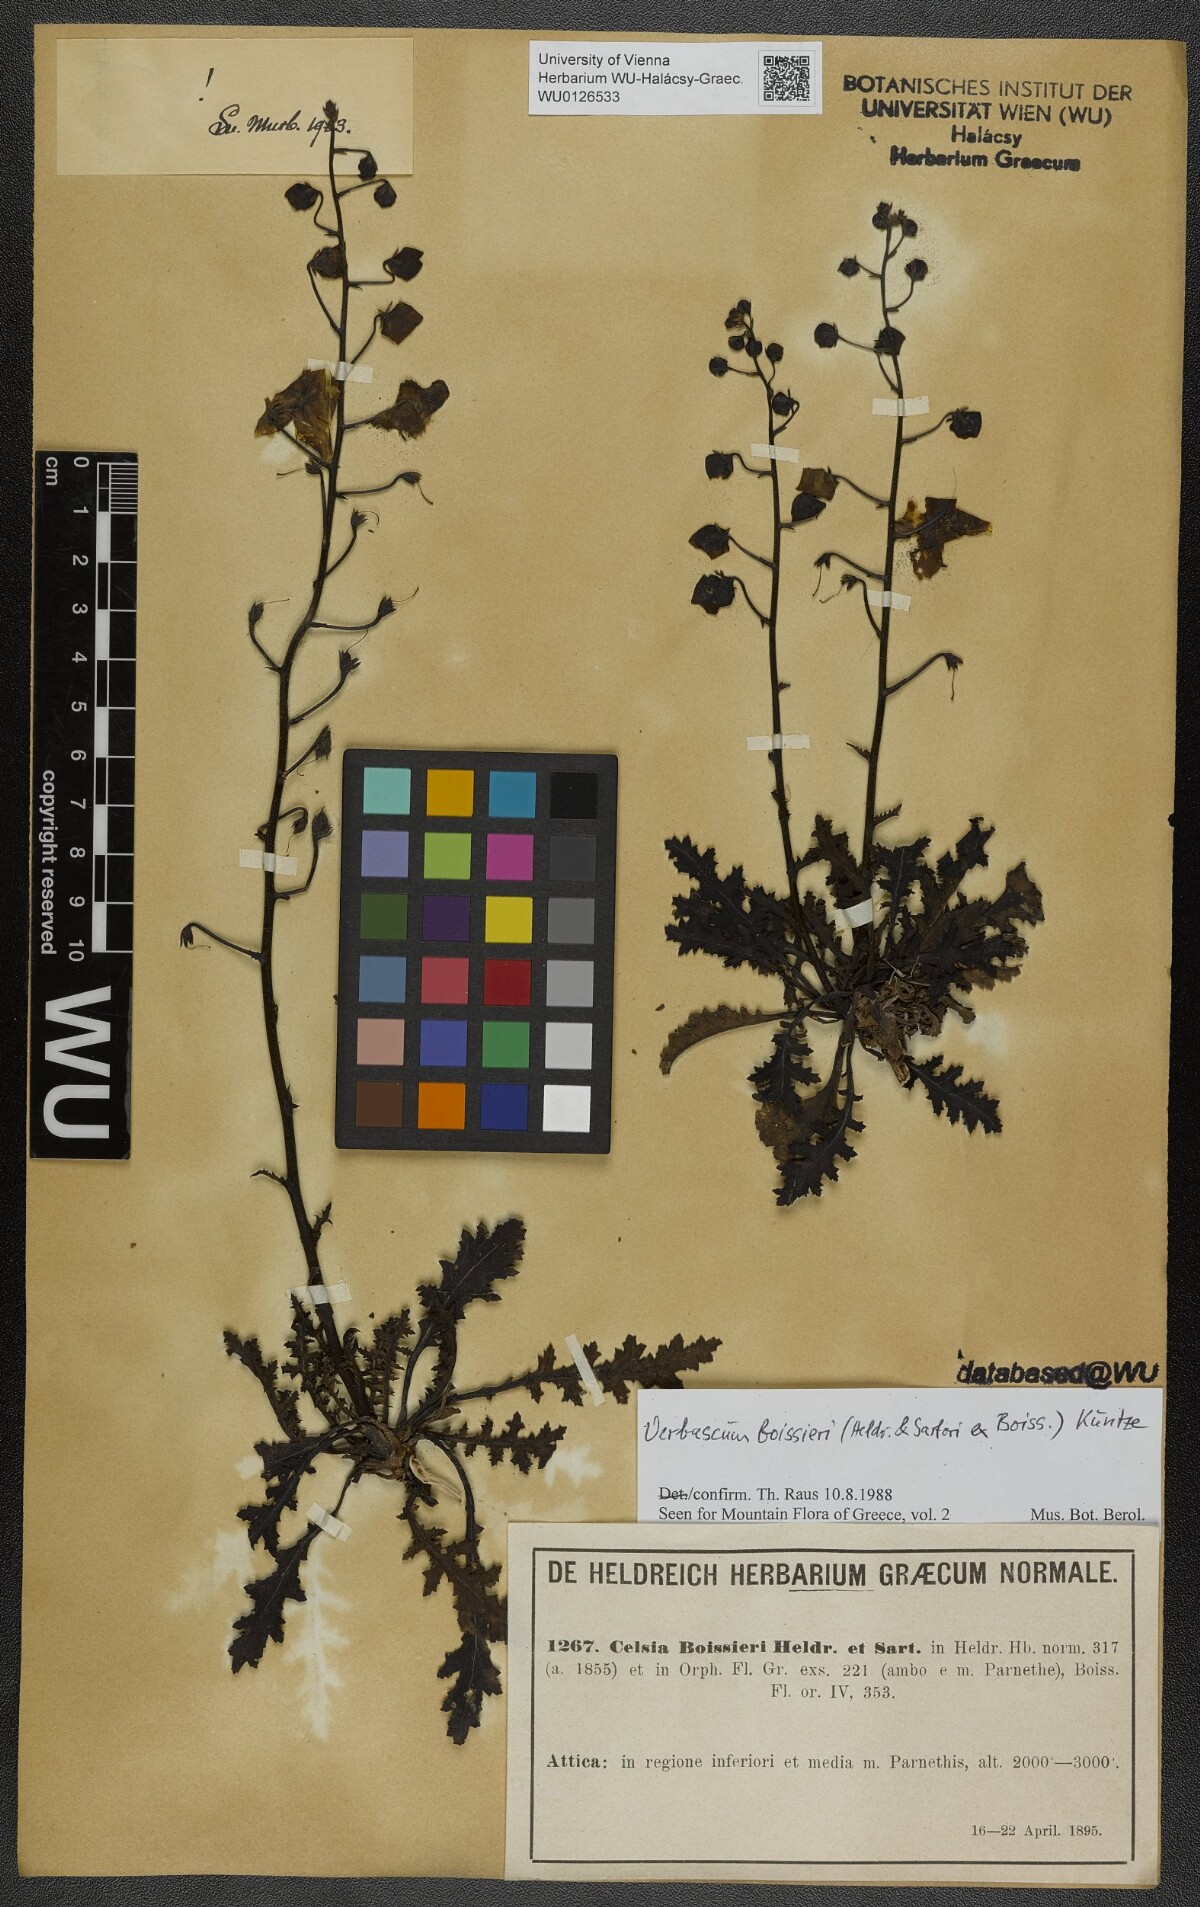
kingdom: Plantae
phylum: Tracheophyta
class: Magnoliopsida
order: Lamiales
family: Scrophulariaceae
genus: Verbascum
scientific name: Verbascum boissieri
